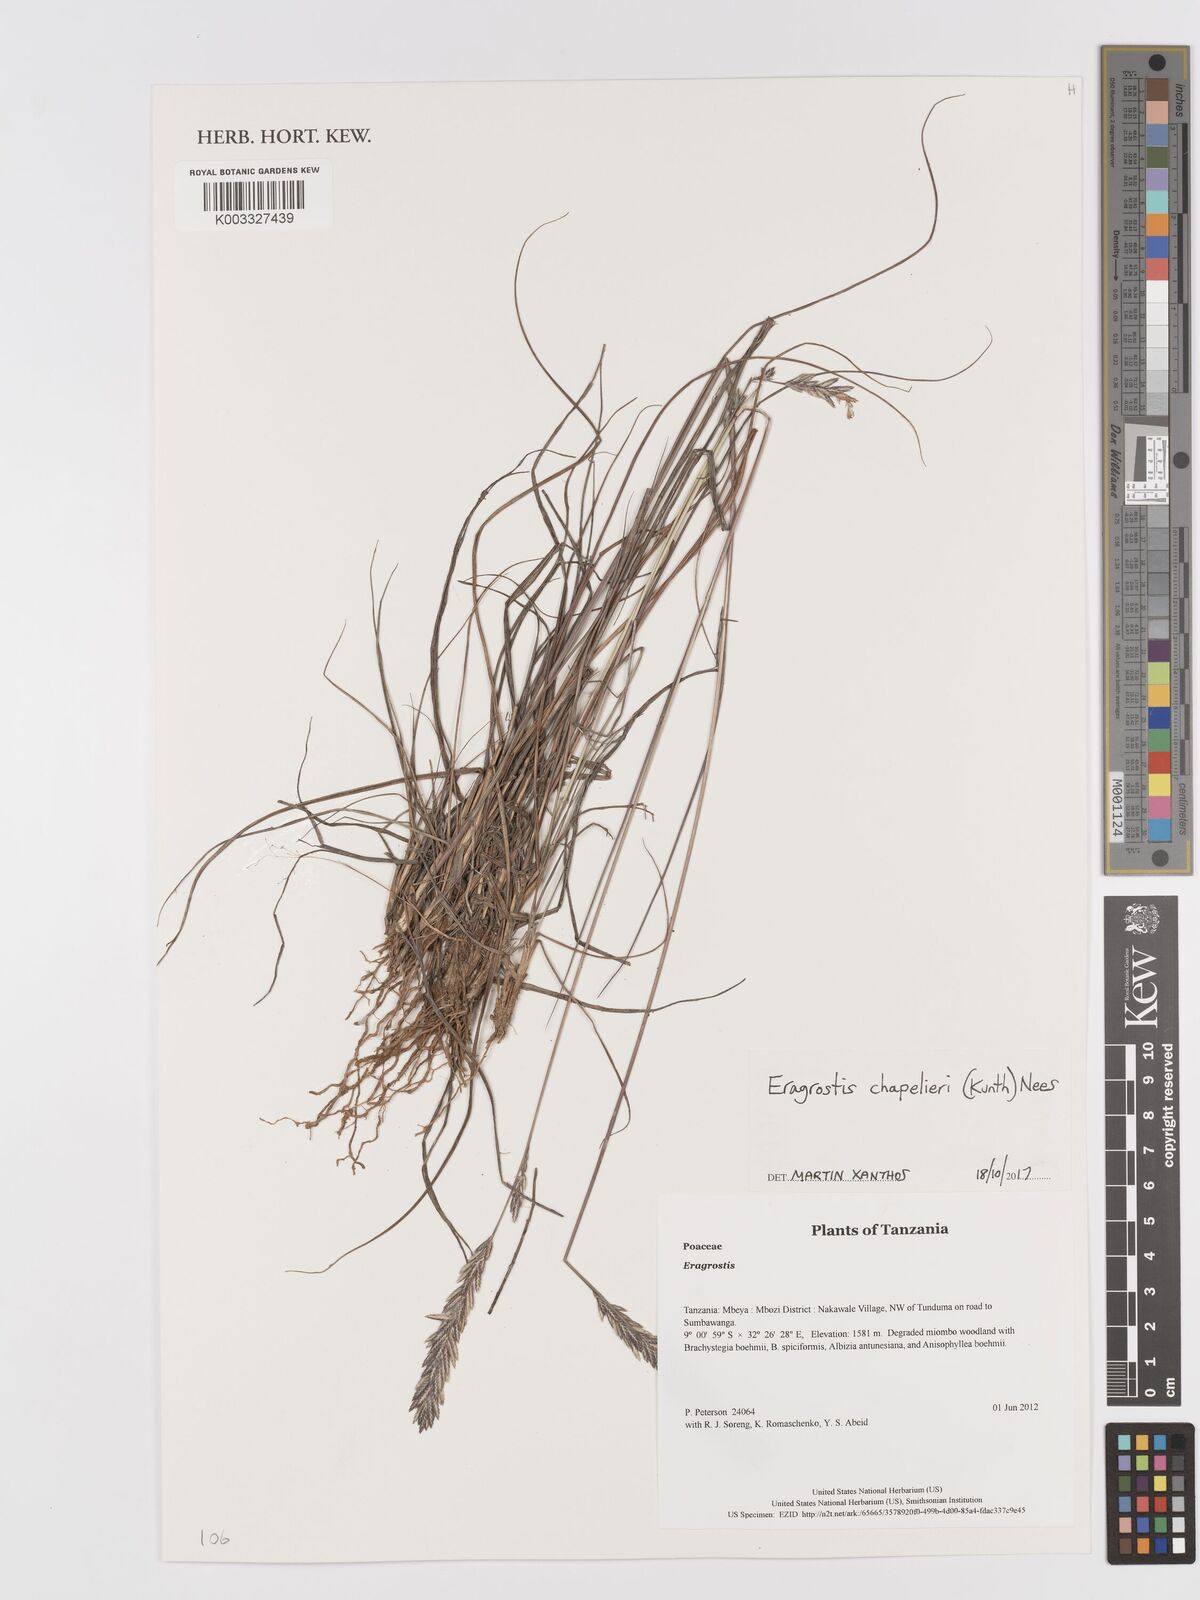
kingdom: Plantae
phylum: Tracheophyta
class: Liliopsida
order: Poales
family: Poaceae
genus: Eragrostis
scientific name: Eragrostis chapelieri
